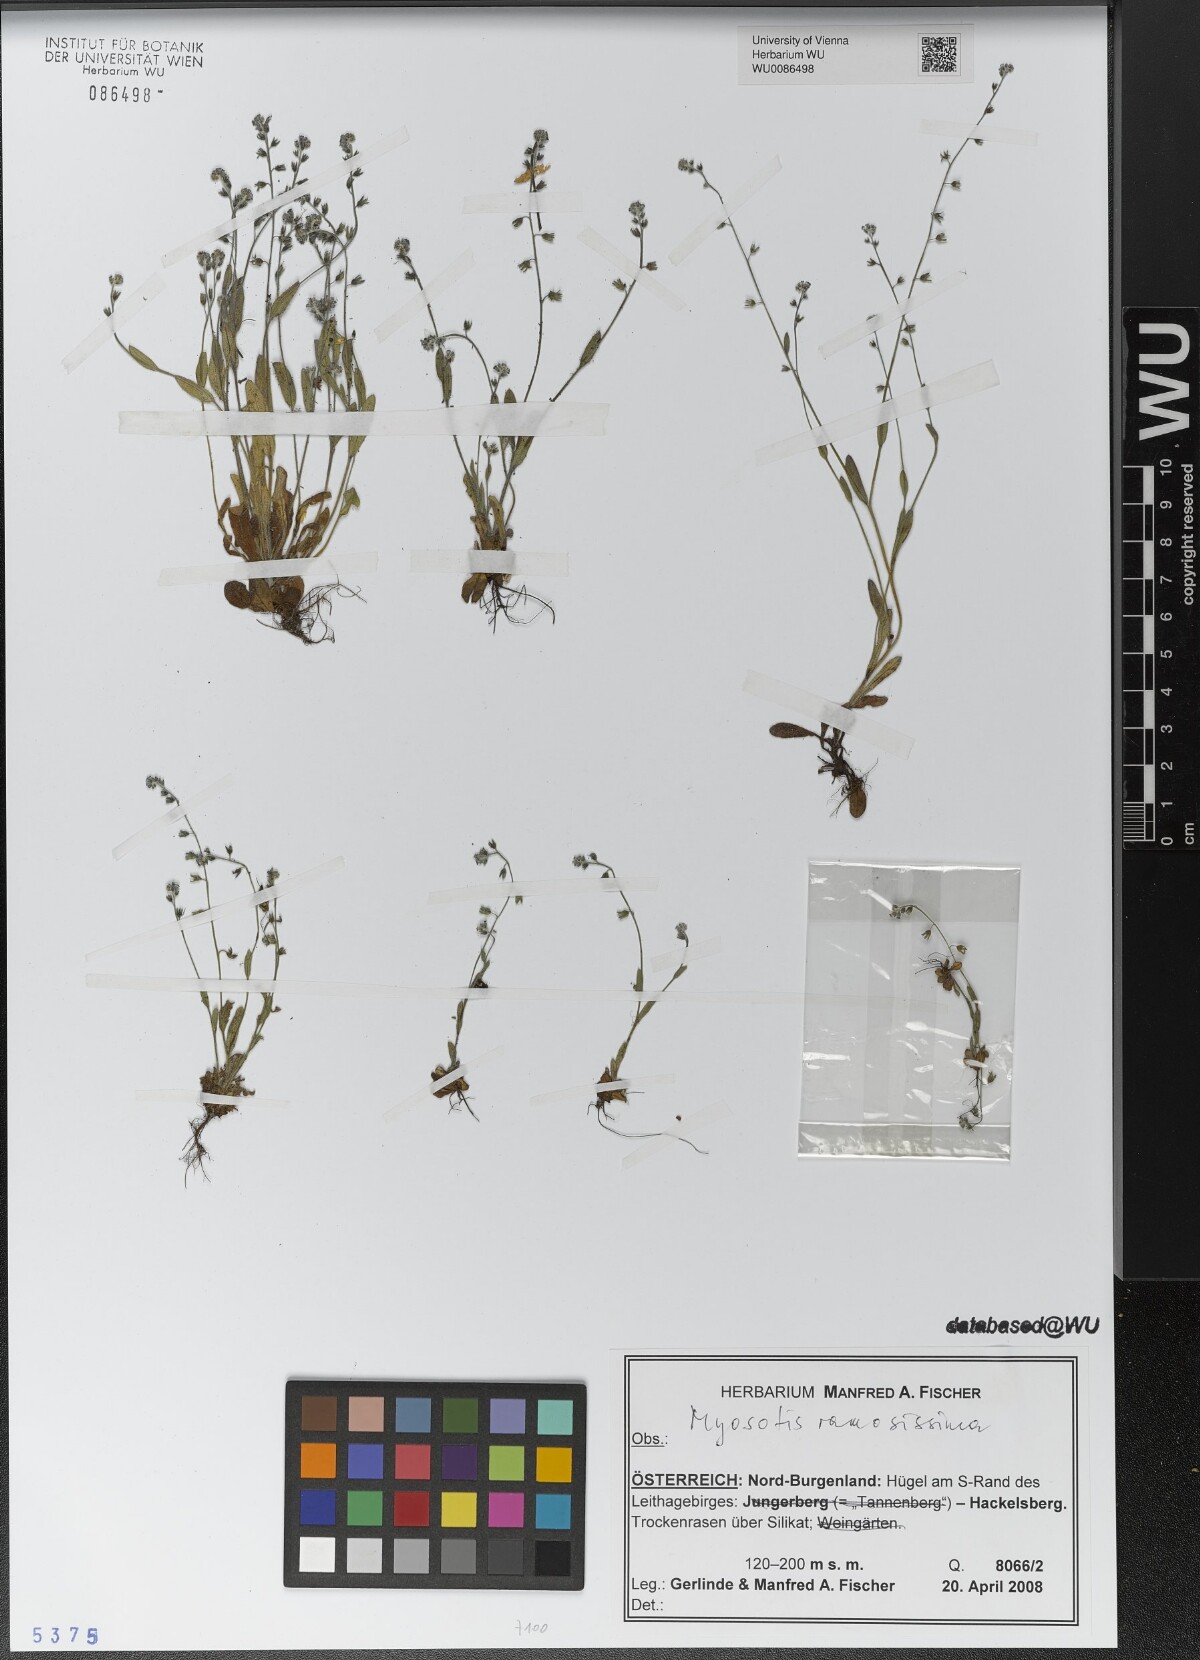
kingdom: Plantae
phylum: Tracheophyta
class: Magnoliopsida
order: Boraginales
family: Boraginaceae
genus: Myosotis
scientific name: Myosotis ramosissima
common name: Early forget-me-not
